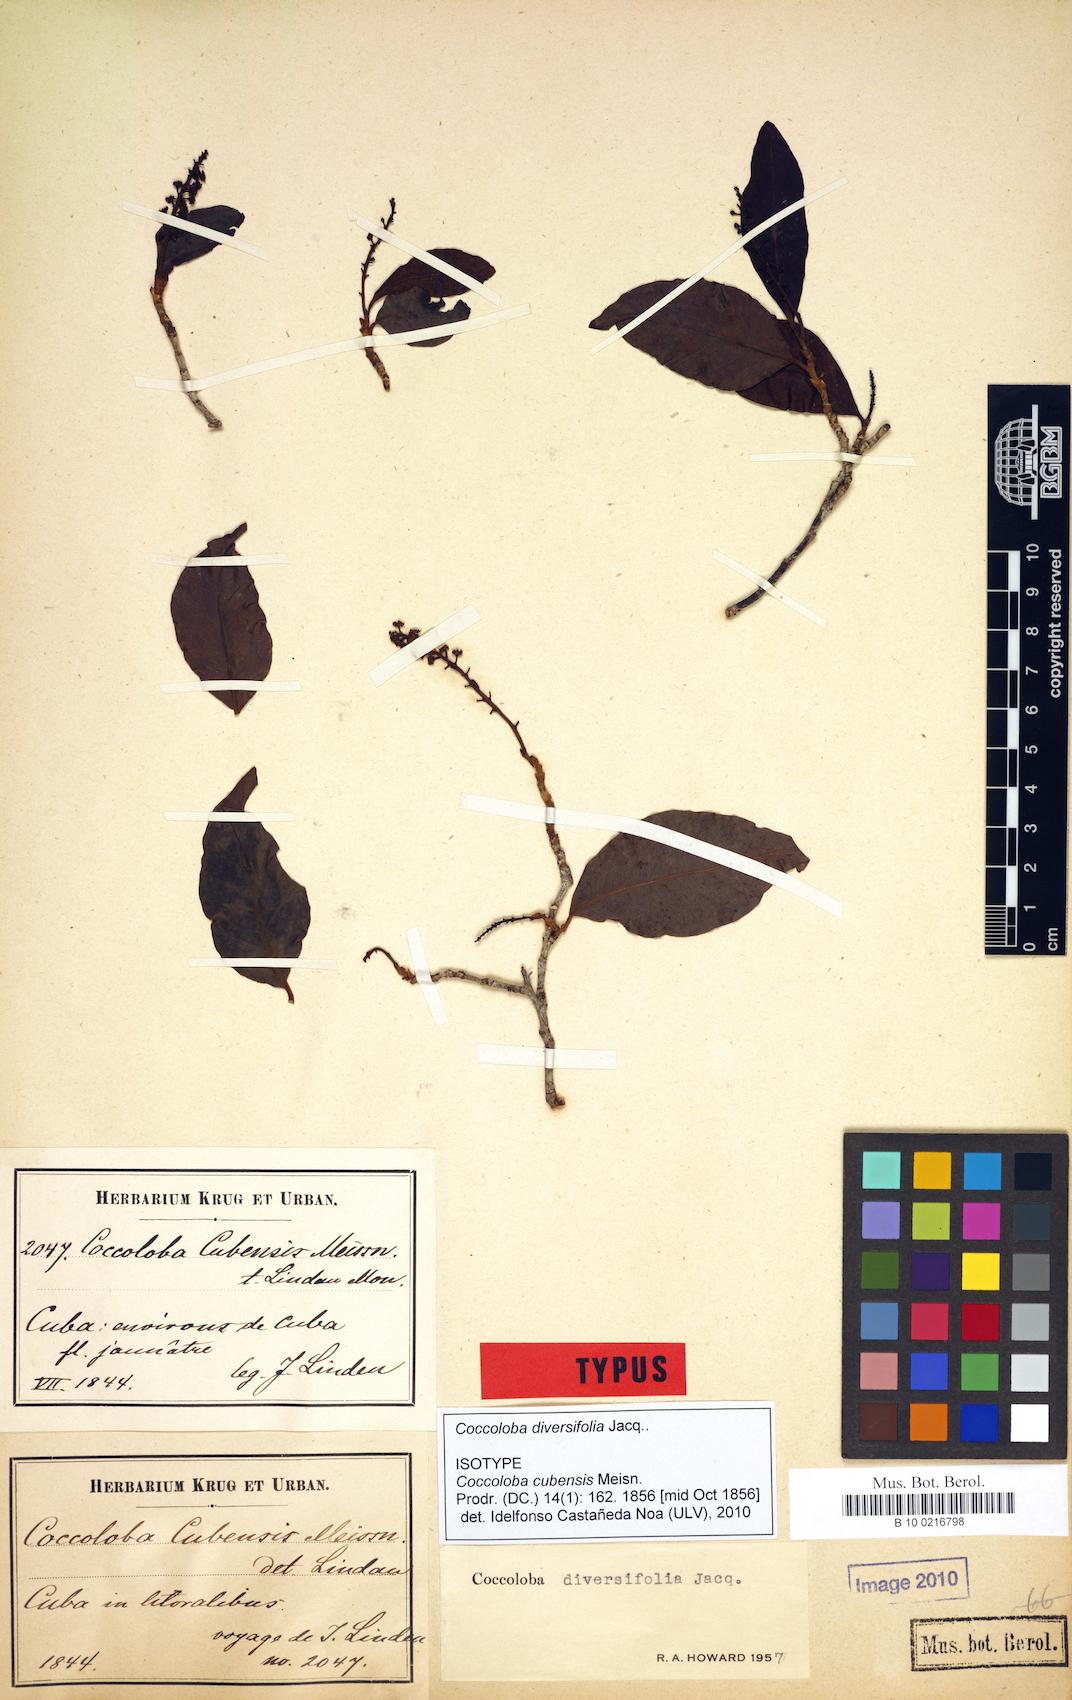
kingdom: Plantae
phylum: Tracheophyta
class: Magnoliopsida
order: Caryophyllales
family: Polygonaceae
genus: Coccoloba
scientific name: Coccoloba diversifolia
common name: Pigeon-plum
